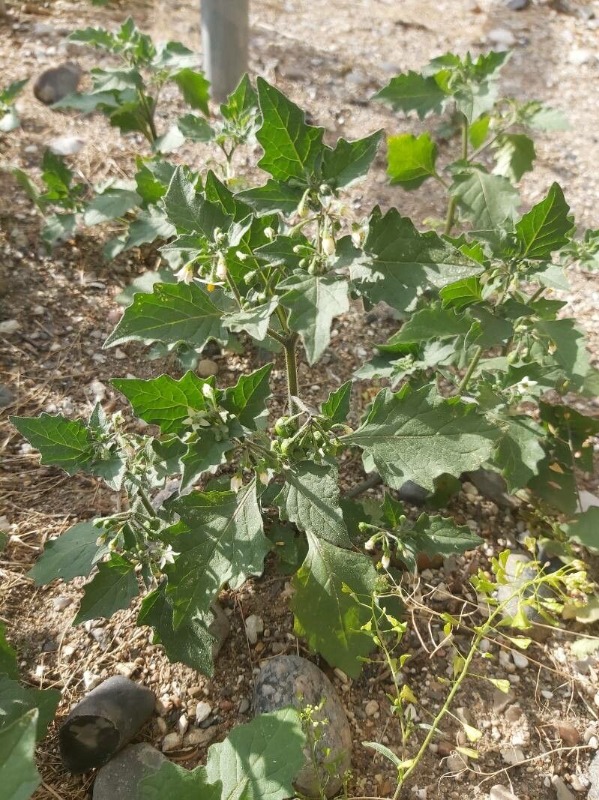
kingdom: Plantae
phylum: Tracheophyta
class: Magnoliopsida
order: Solanales
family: Solanaceae
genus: Solanum
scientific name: Solanum decipiens
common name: Kirtel-natskygge
